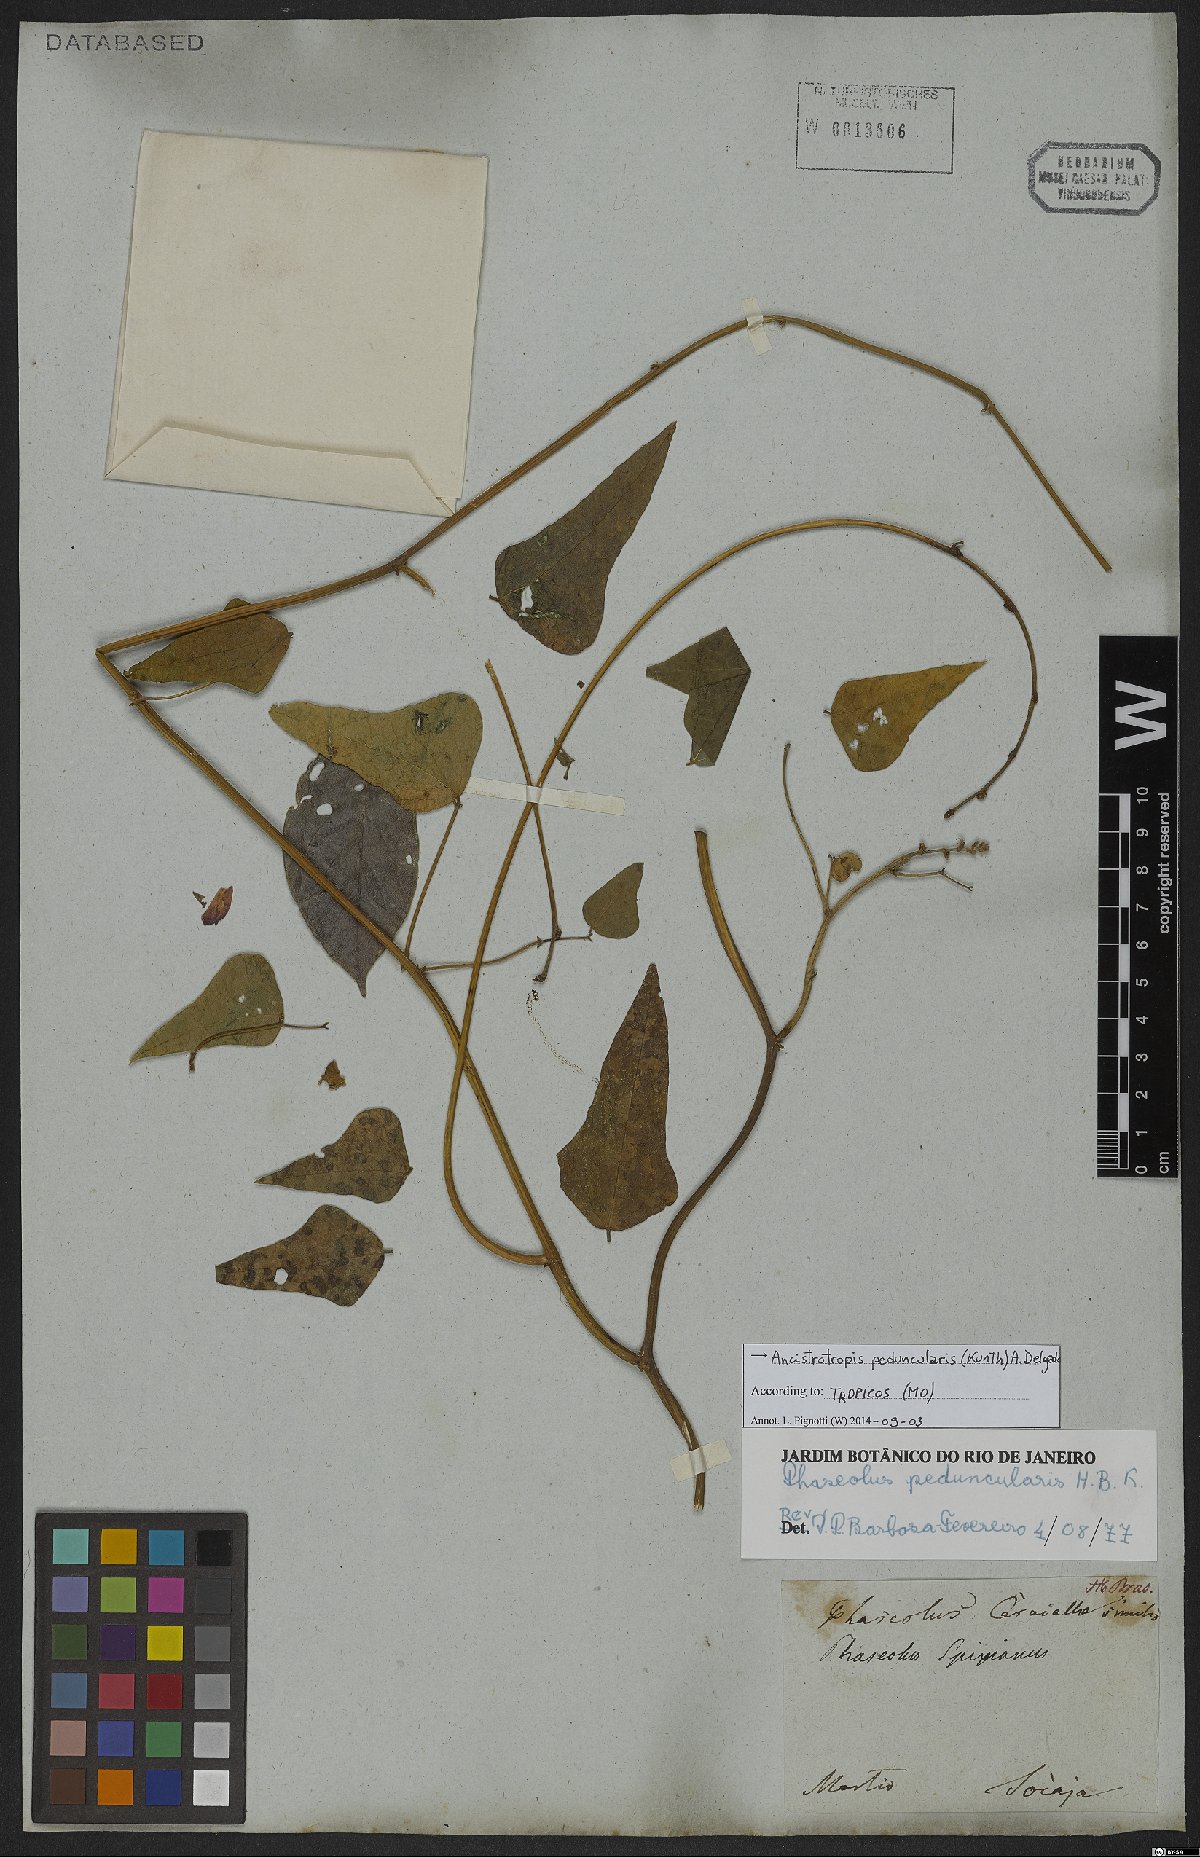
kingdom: Plantae
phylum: Tracheophyta
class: Magnoliopsida
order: Fabales
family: Fabaceae
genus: Ancistrotropis
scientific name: Ancistrotropis peduncularis
